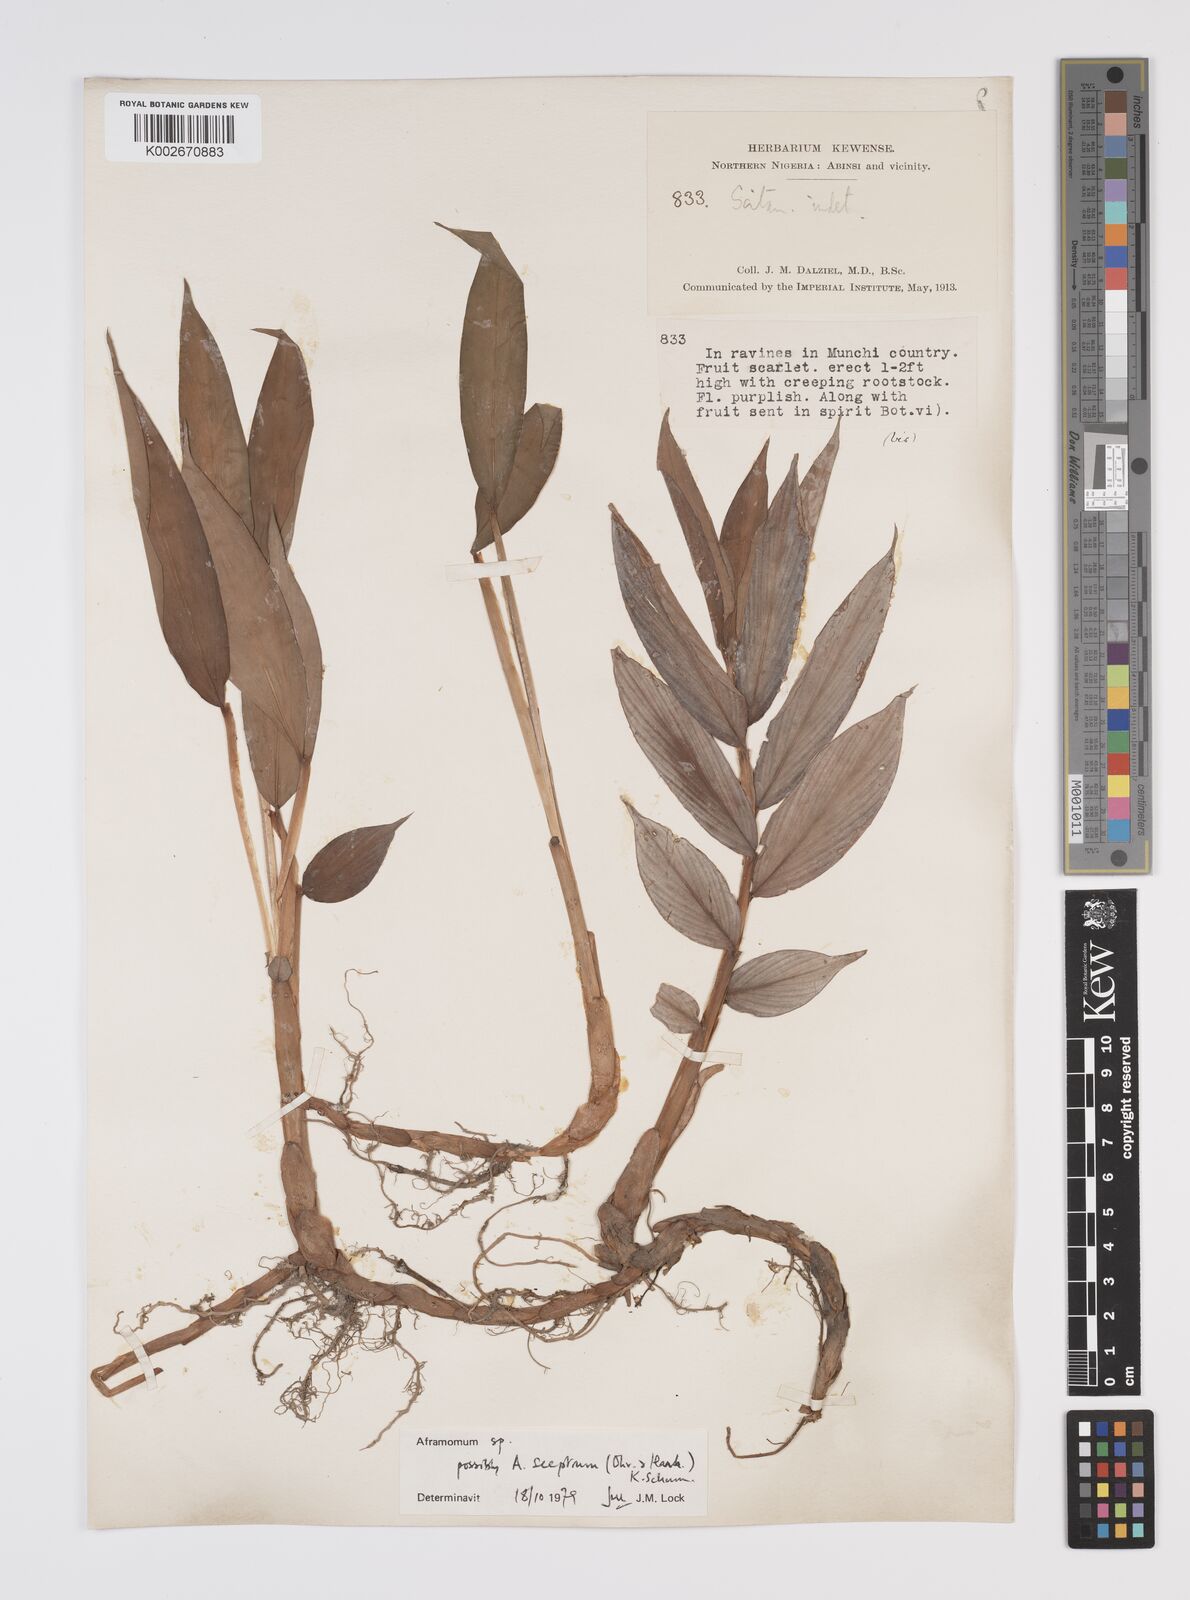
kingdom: Plantae
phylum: Tracheophyta
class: Liliopsida
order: Zingiberales
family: Zingiberaceae
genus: Aframomum
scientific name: Aframomum cereum
